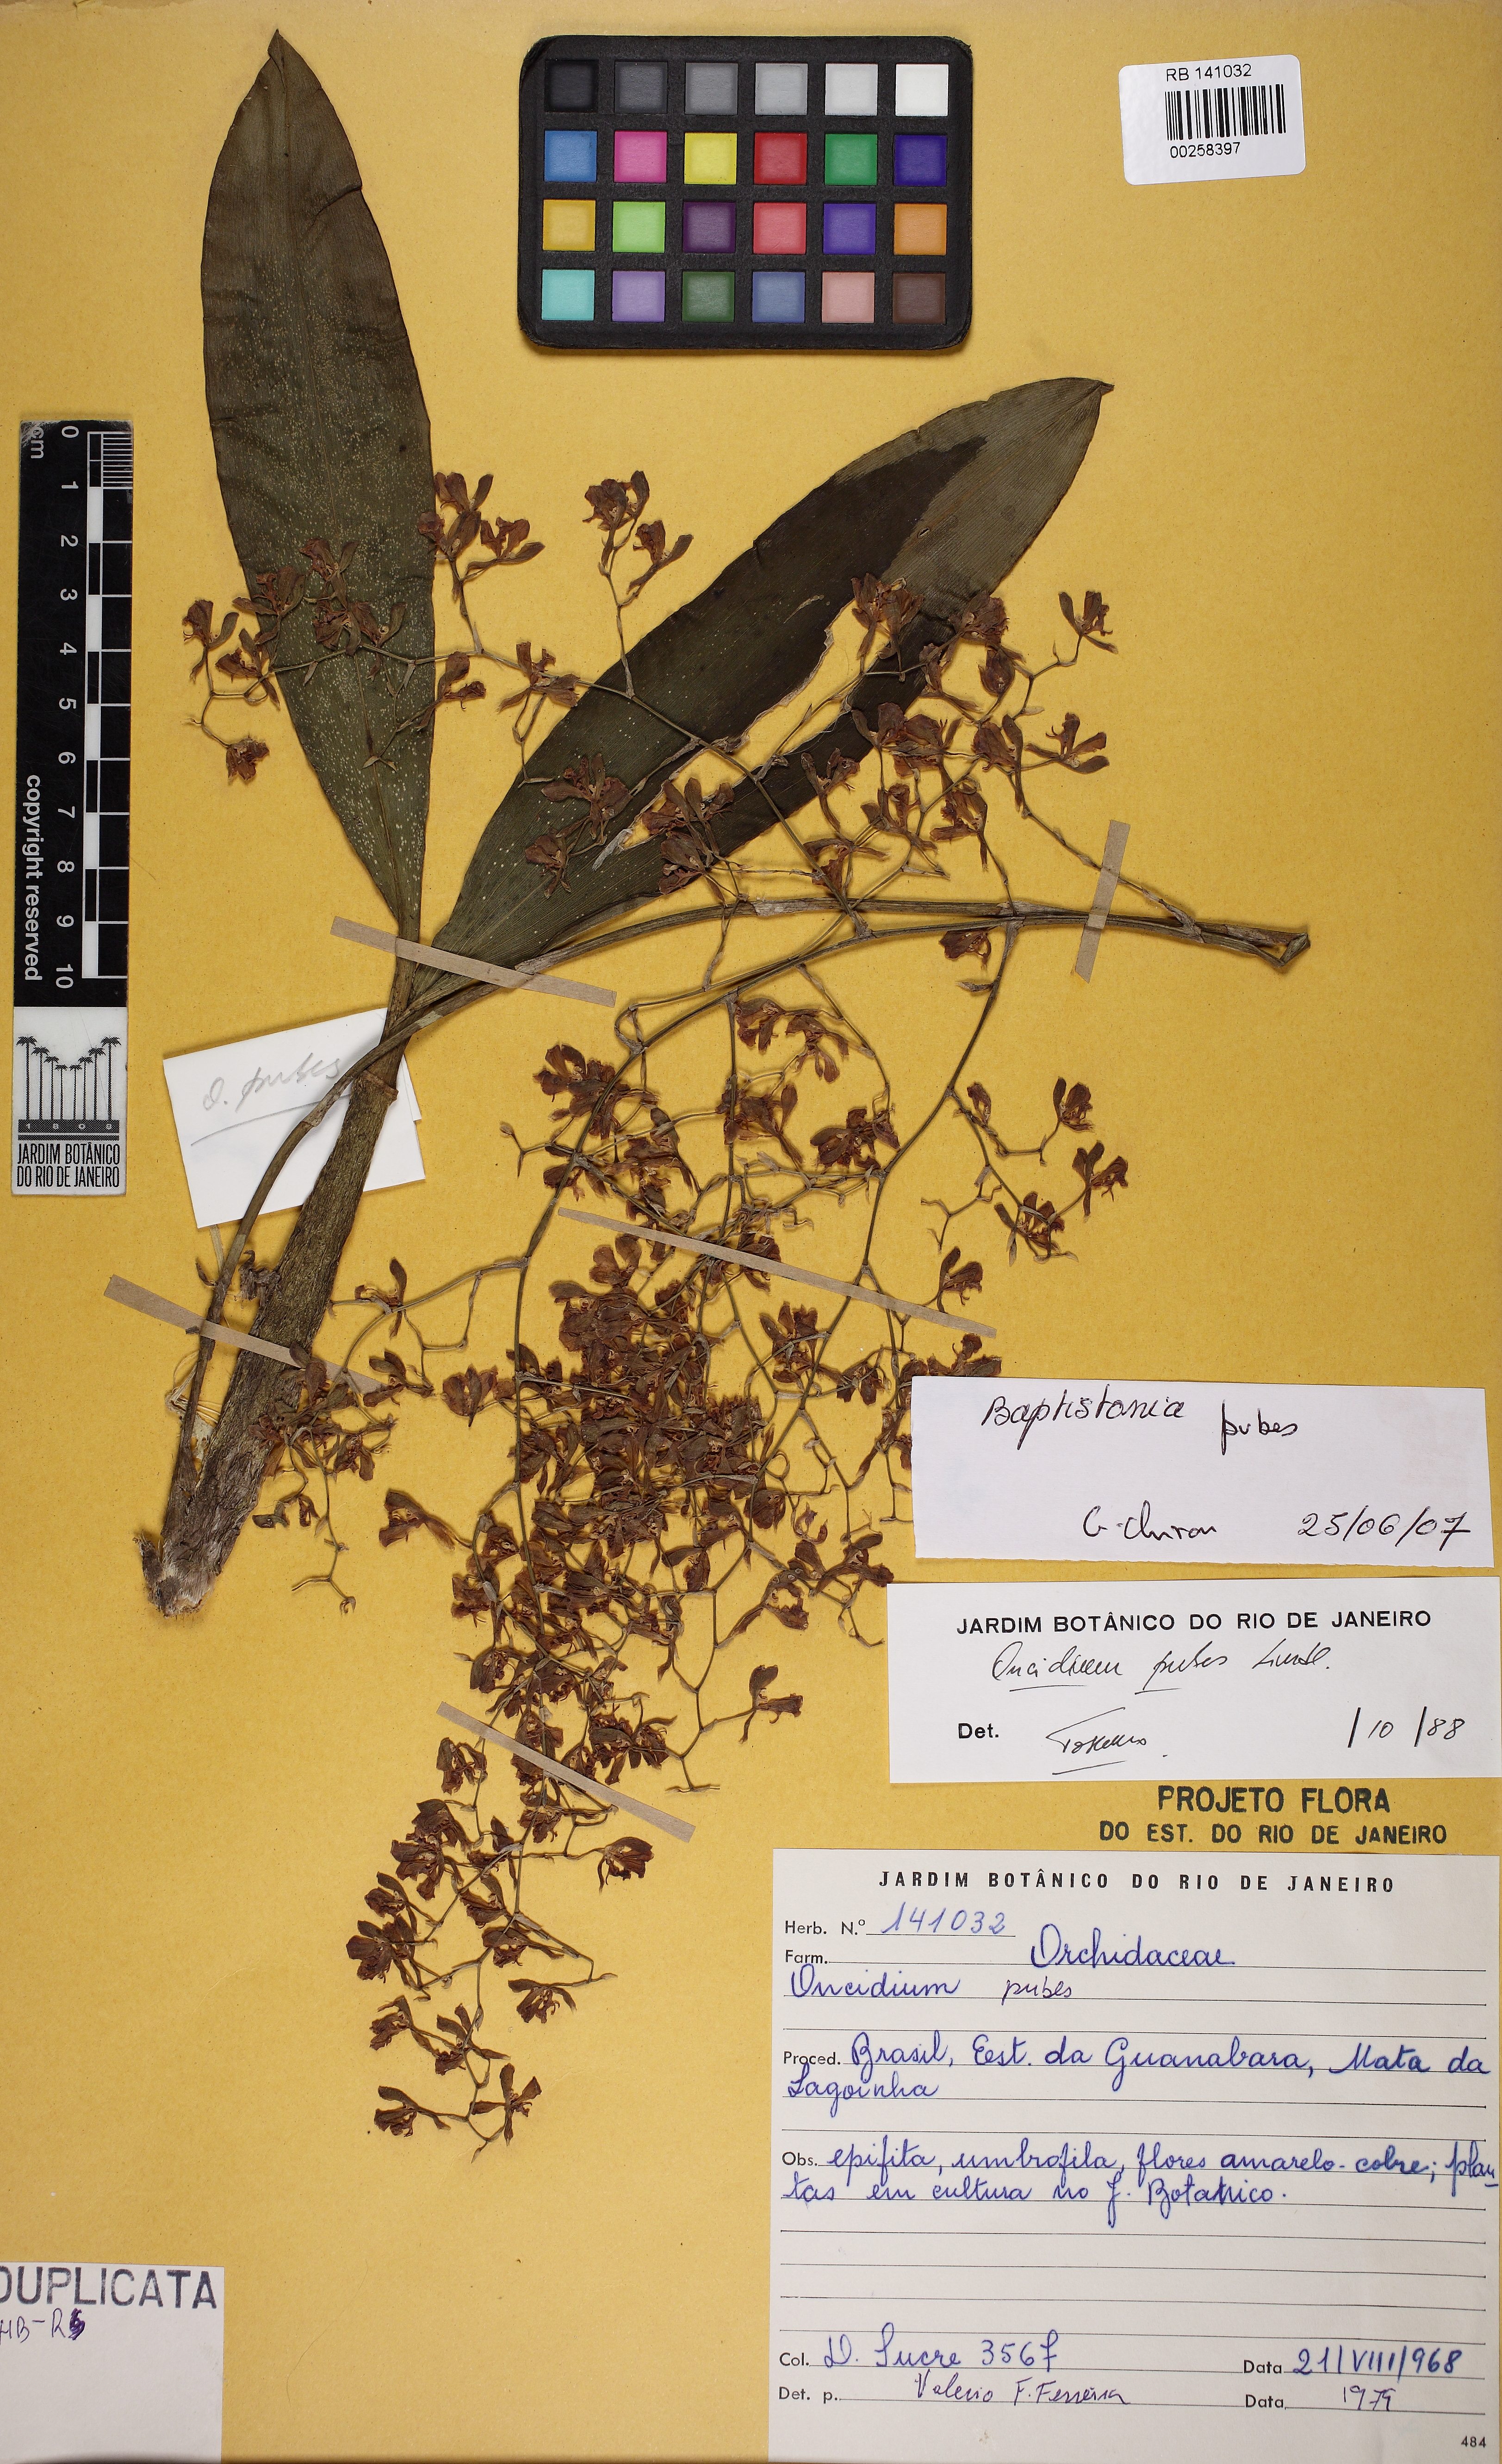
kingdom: Plantae
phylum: Tracheophyta
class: Liliopsida
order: Asparagales
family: Orchidaceae
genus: Gomesa
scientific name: Gomesa pubes
